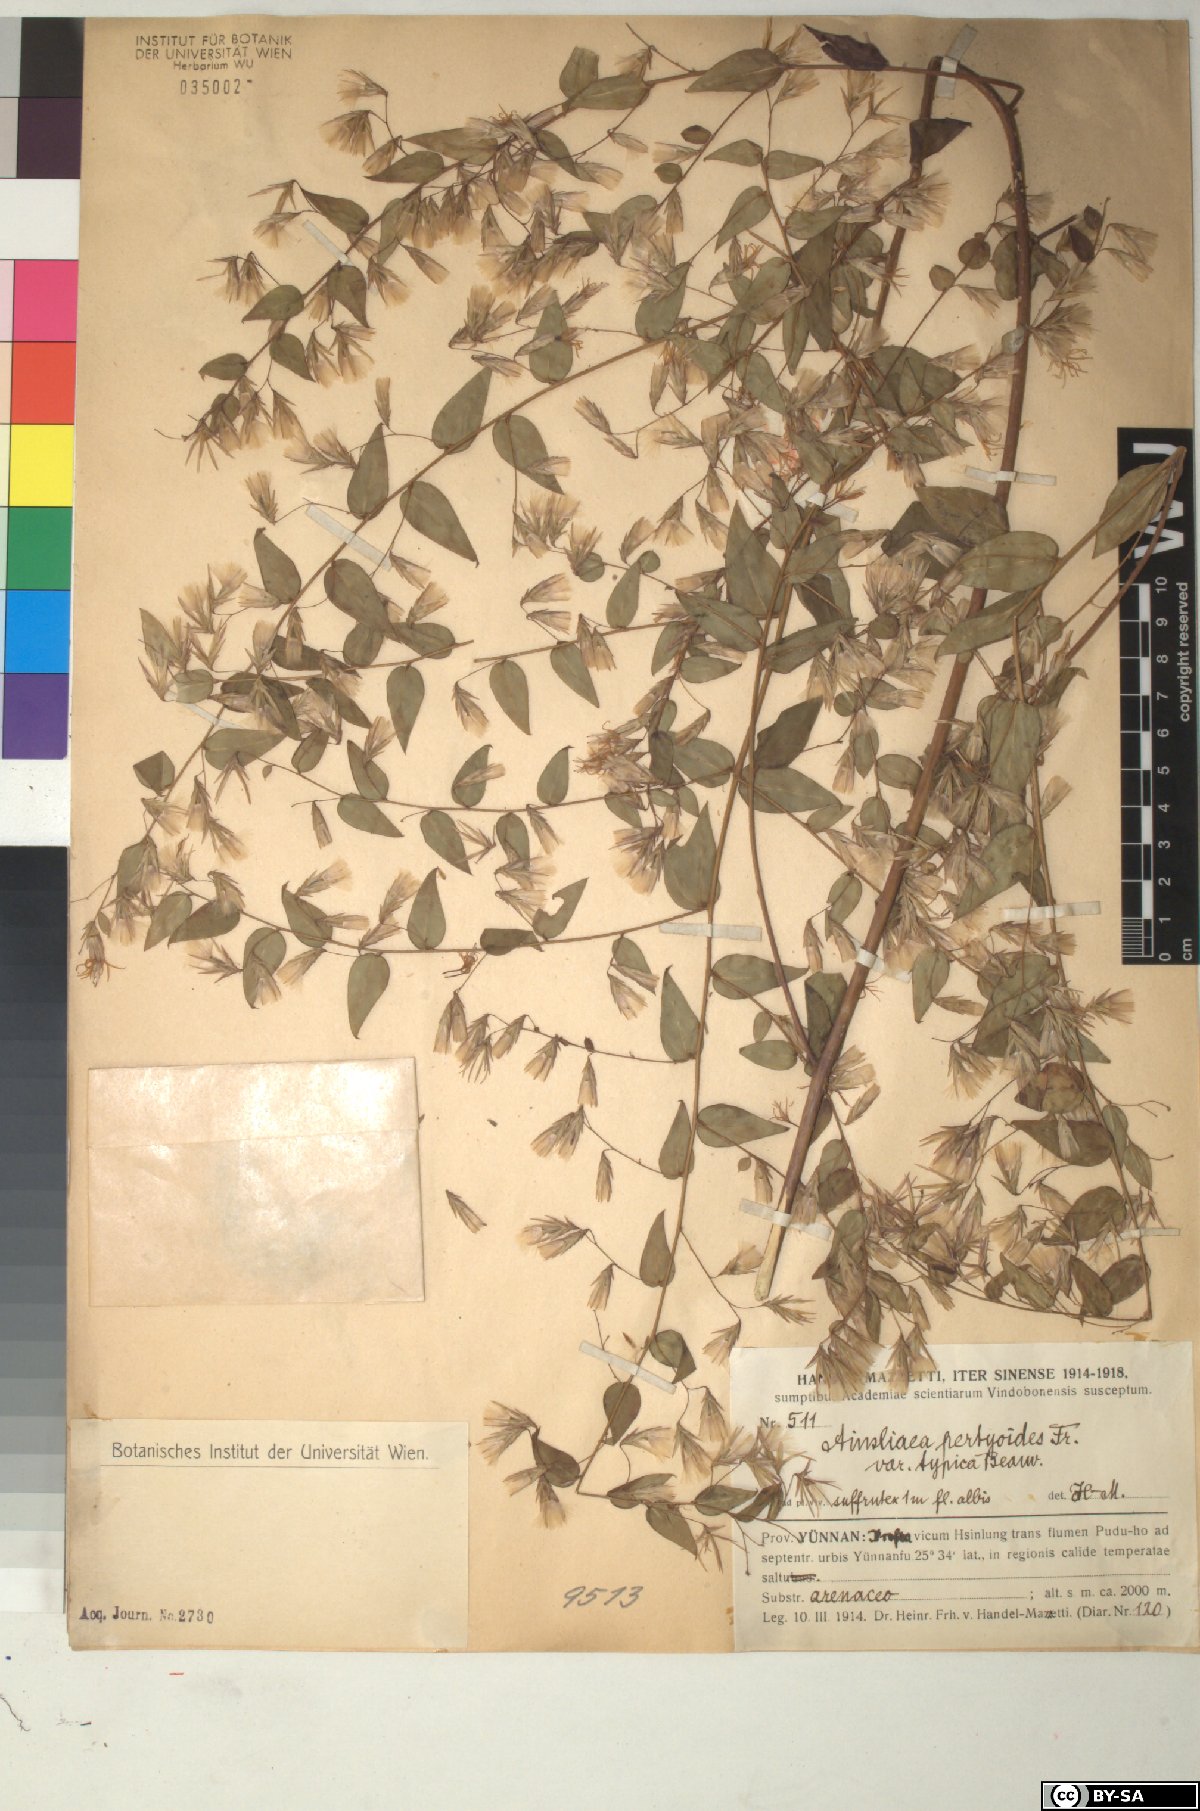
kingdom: Plantae
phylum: Tracheophyta
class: Magnoliopsida
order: Asterales
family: Asteraceae
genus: Ainsliaea
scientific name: Ainsliaea pertyoides
